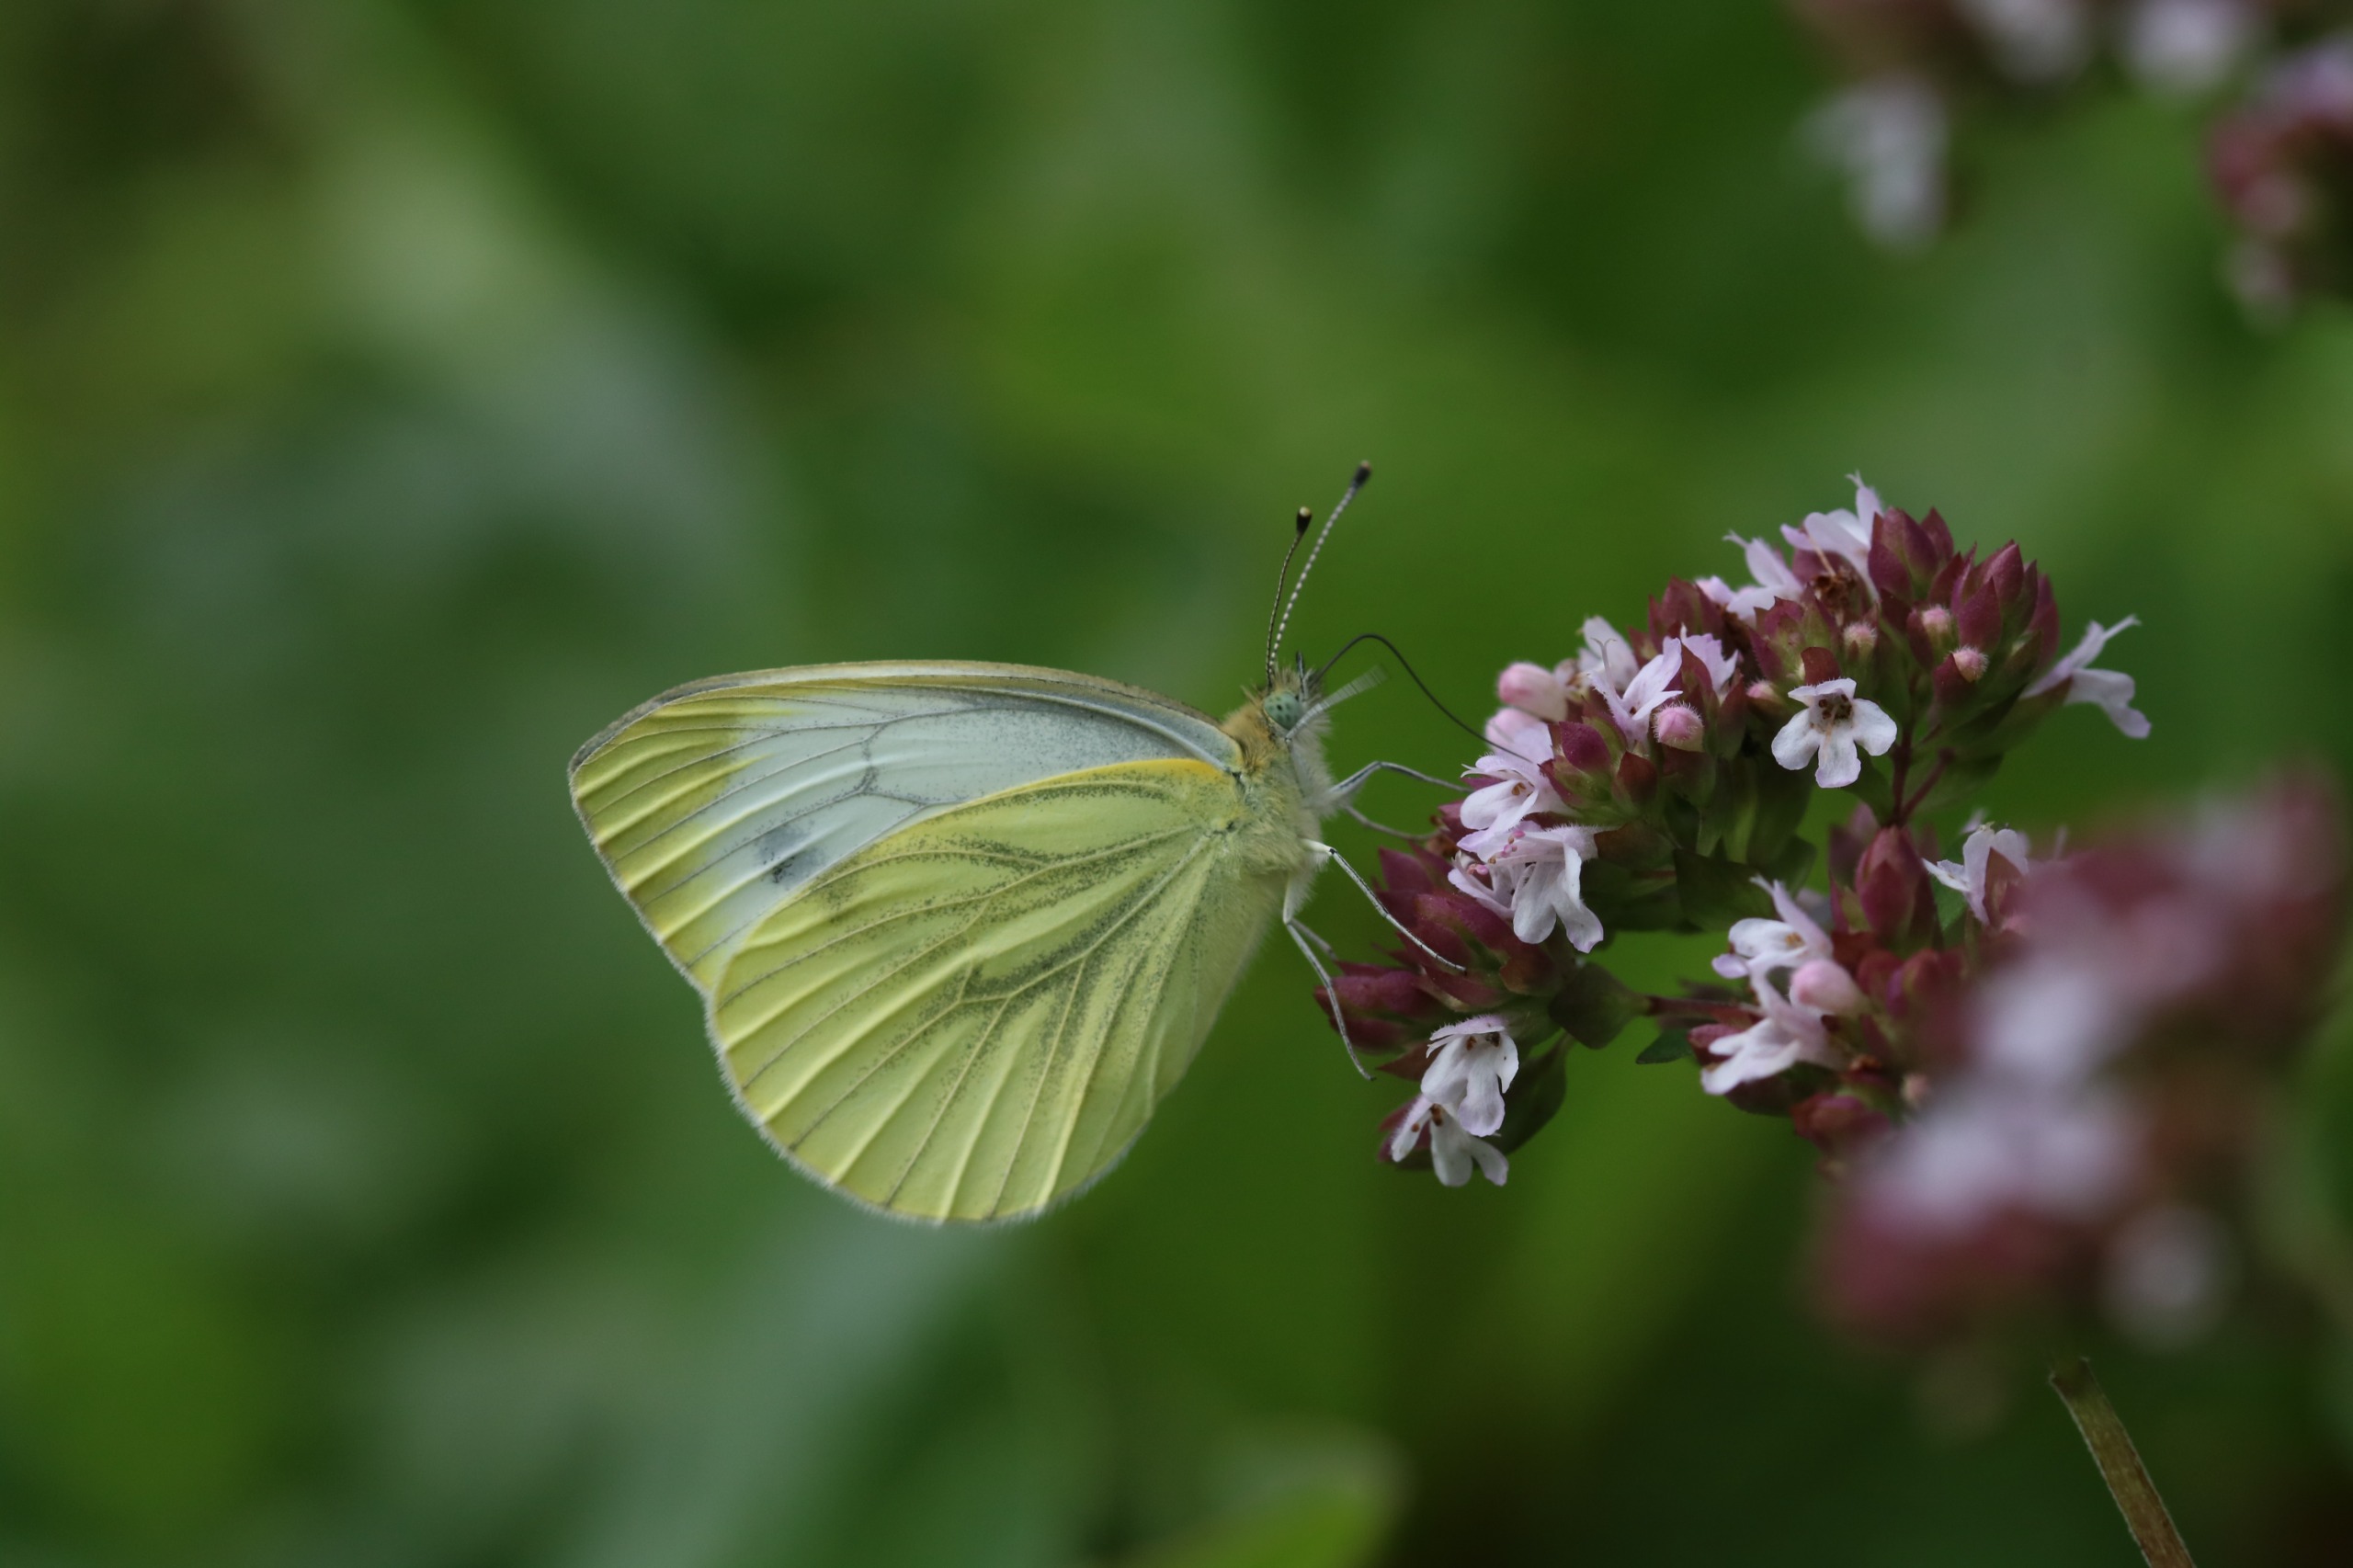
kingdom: Animalia
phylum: Arthropoda
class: Insecta
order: Lepidoptera
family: Pieridae
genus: Pieris
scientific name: Pieris napi
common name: Grønåret kålsommerfugl
